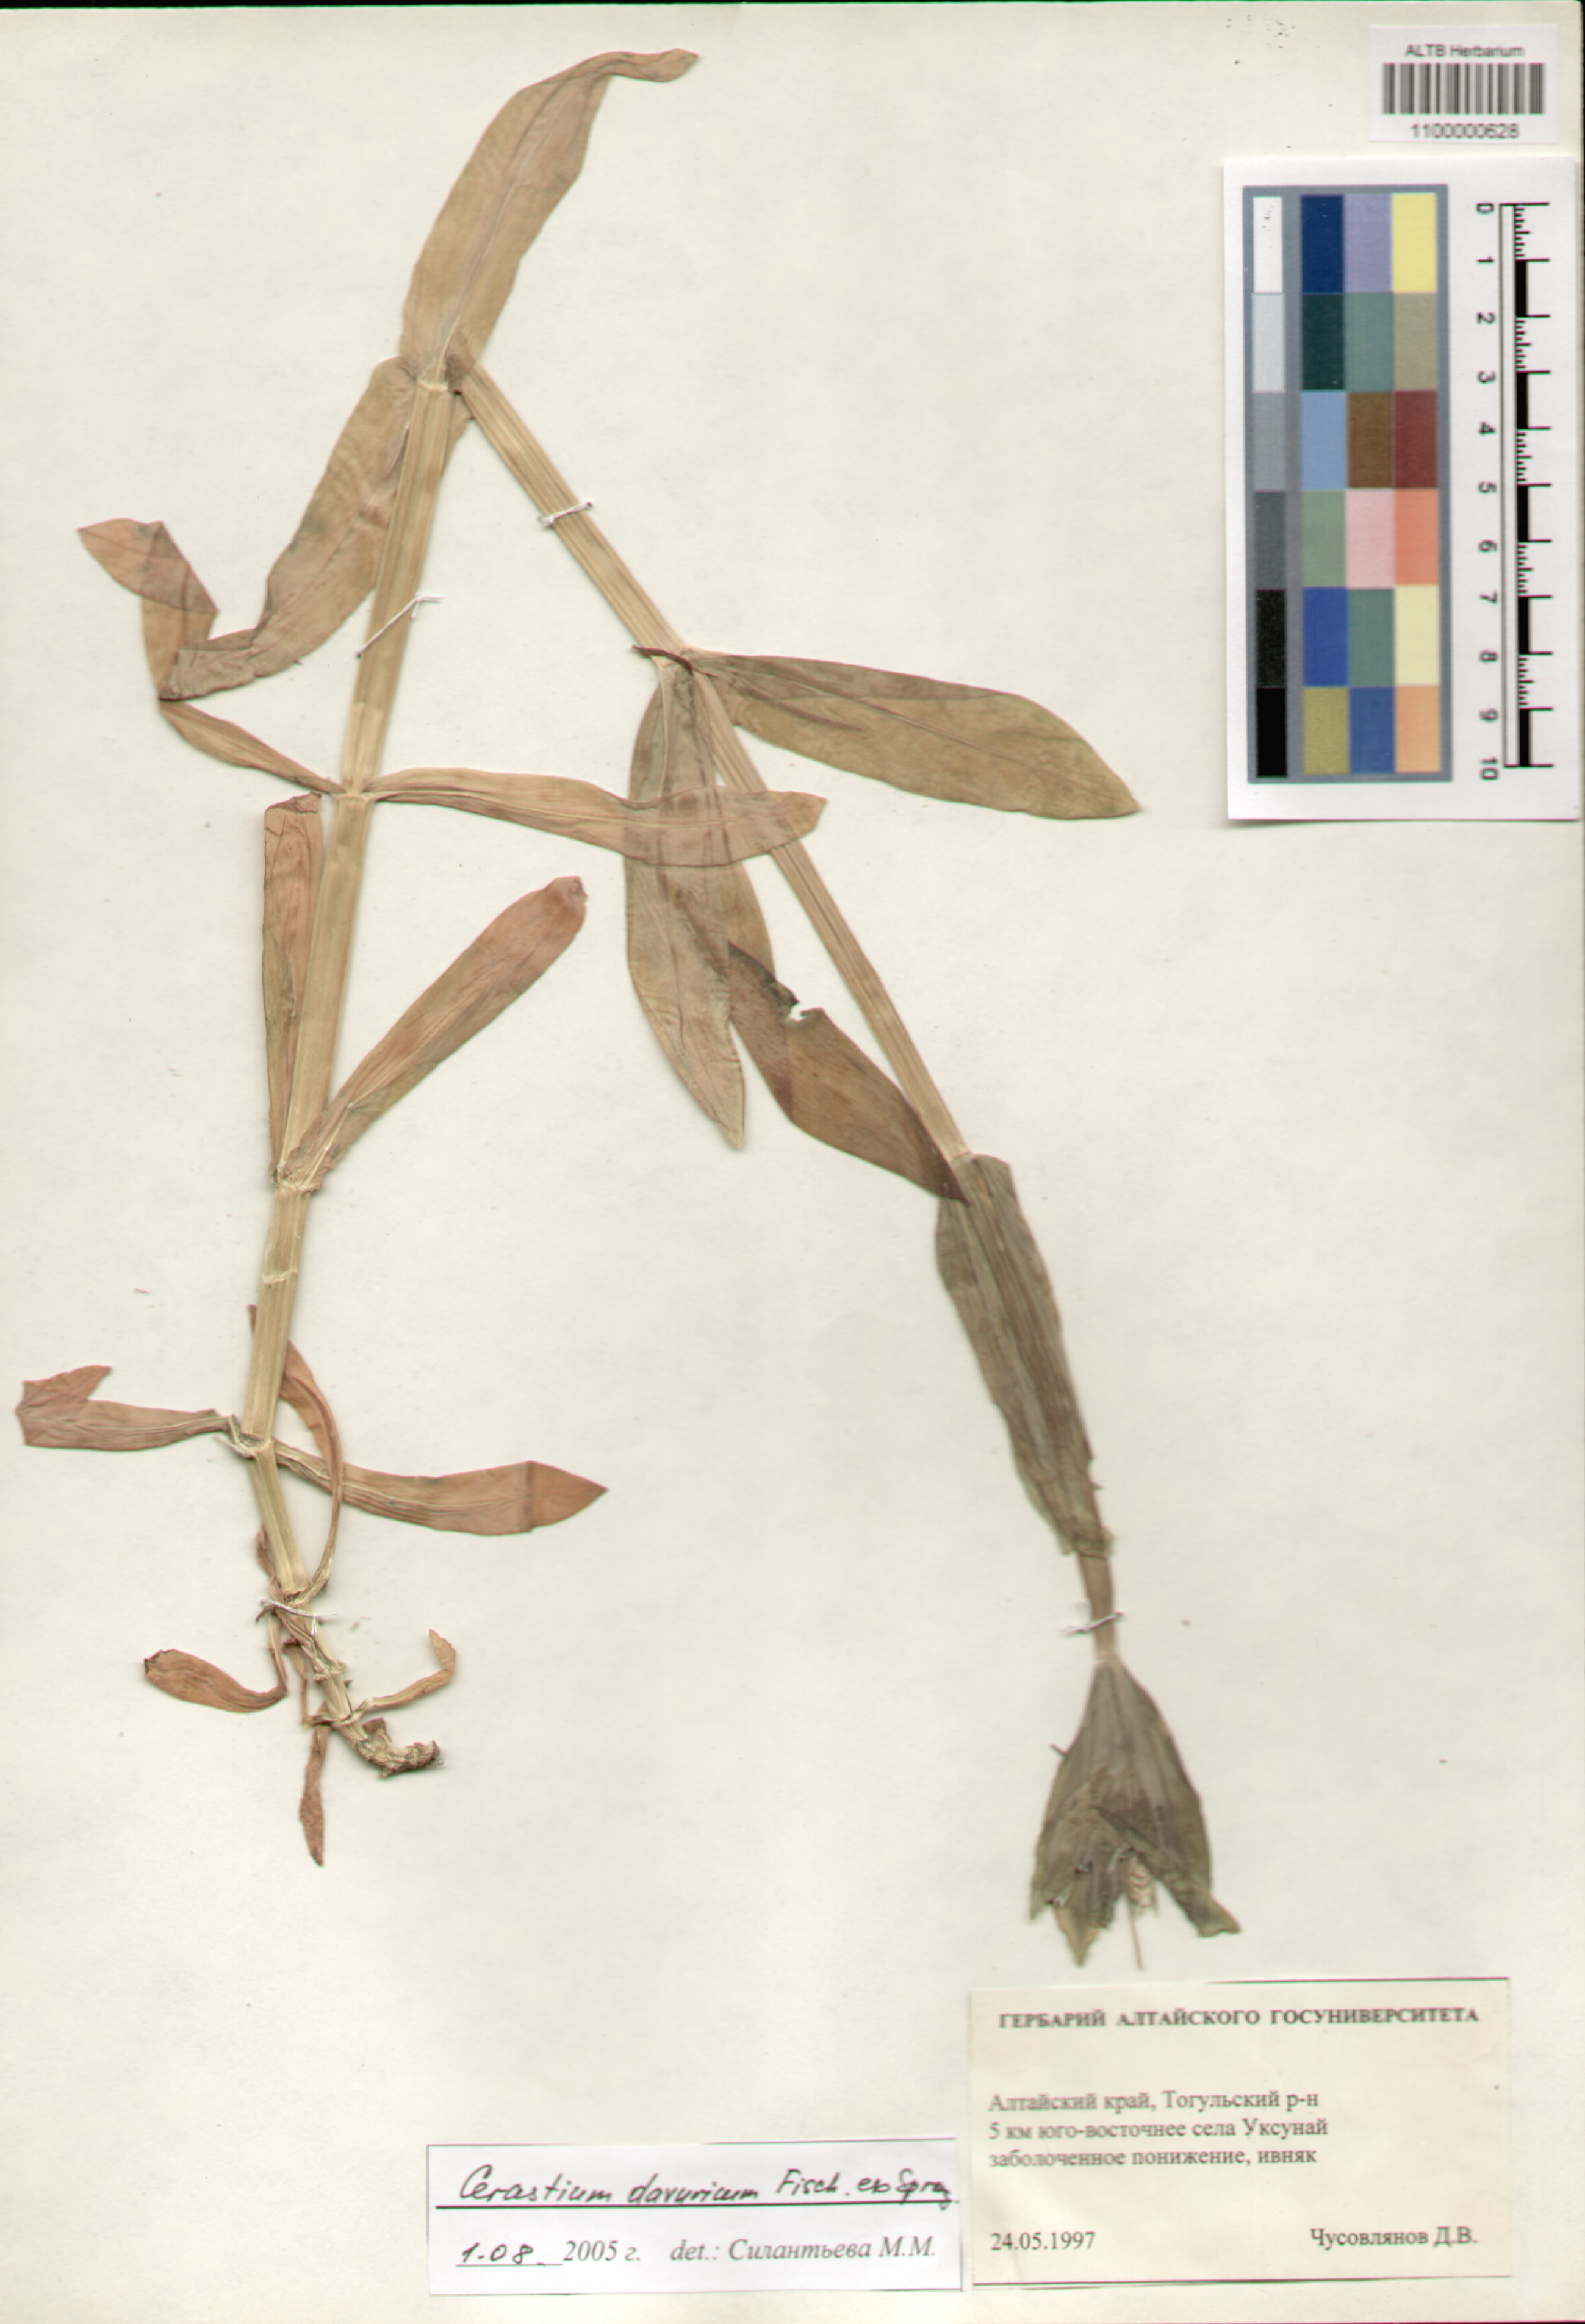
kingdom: Plantae
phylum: Tracheophyta
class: Magnoliopsida
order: Caryophyllales
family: Caryophyllaceae
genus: Dichodon
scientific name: Dichodon davuricum
